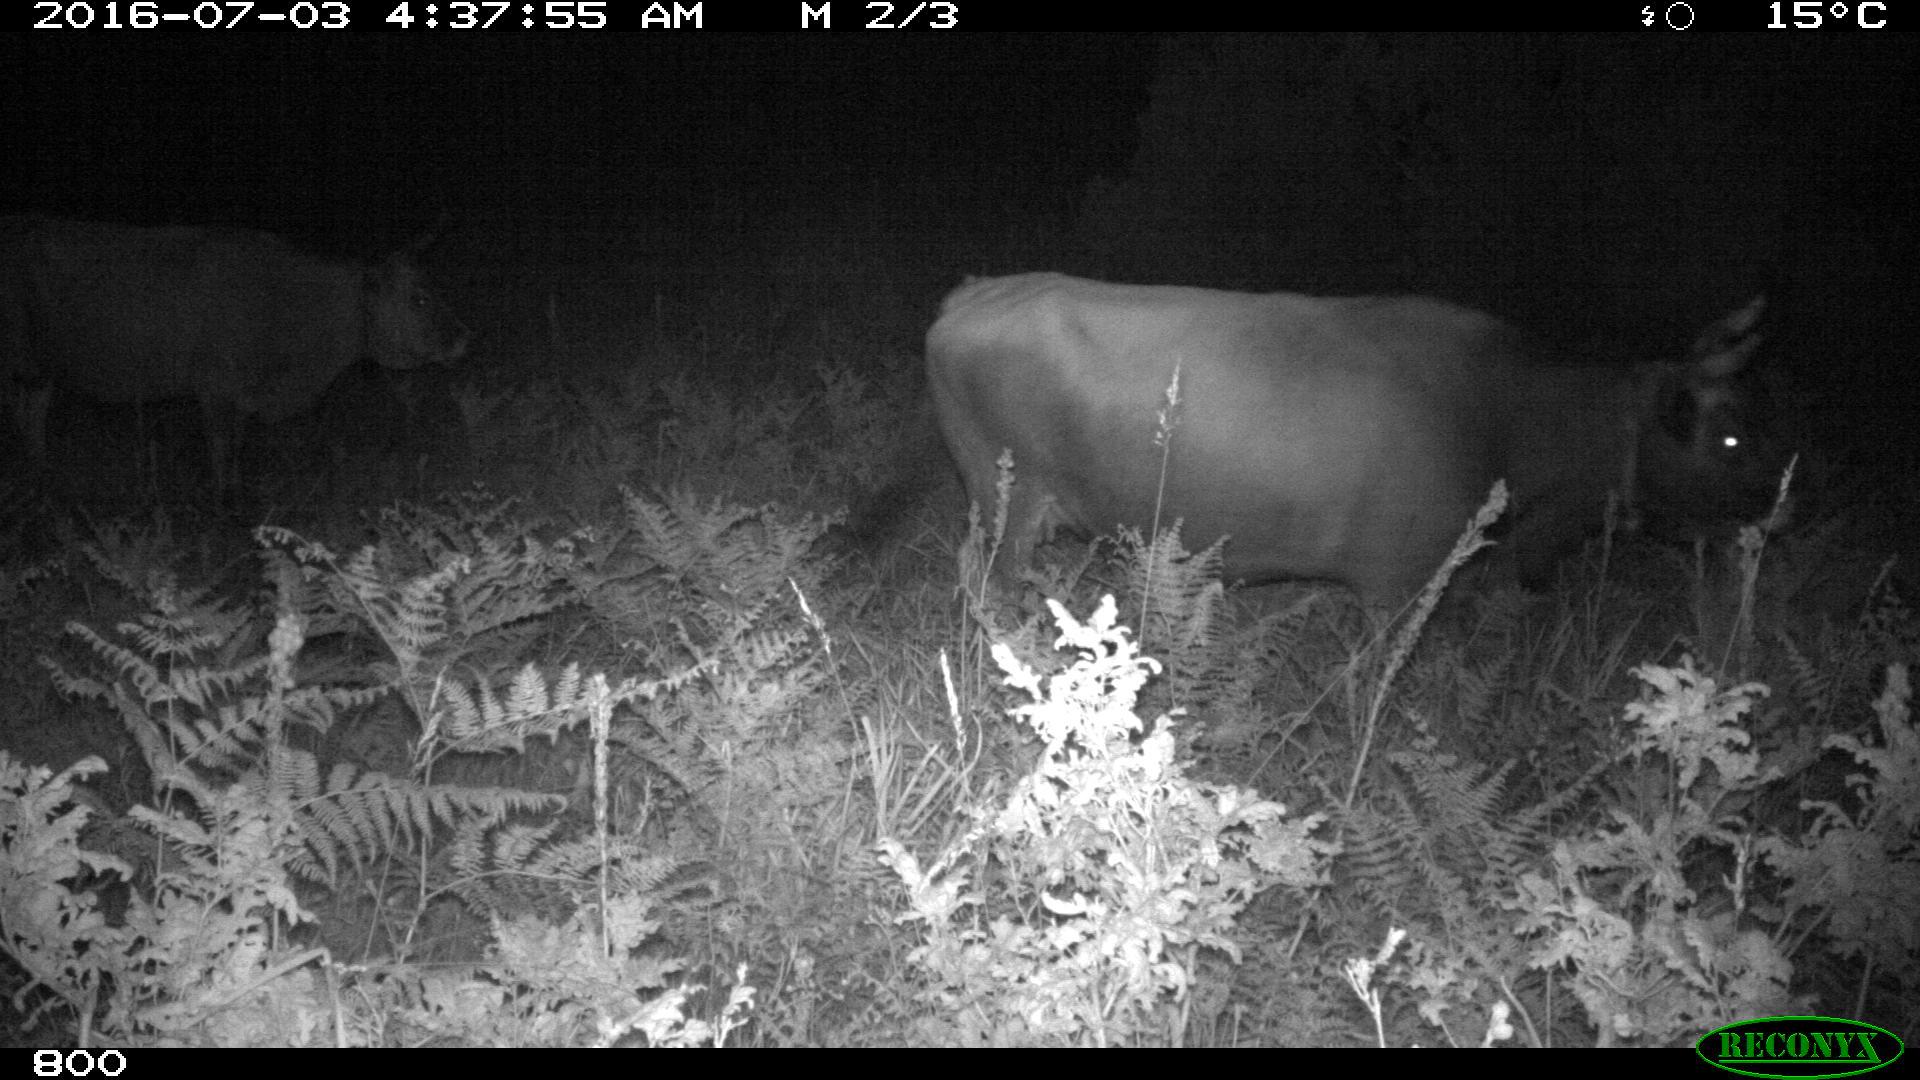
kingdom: Animalia
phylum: Chordata
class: Mammalia
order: Artiodactyla
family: Bovidae
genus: Bos
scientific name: Bos taurus
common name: Domesticated cattle
